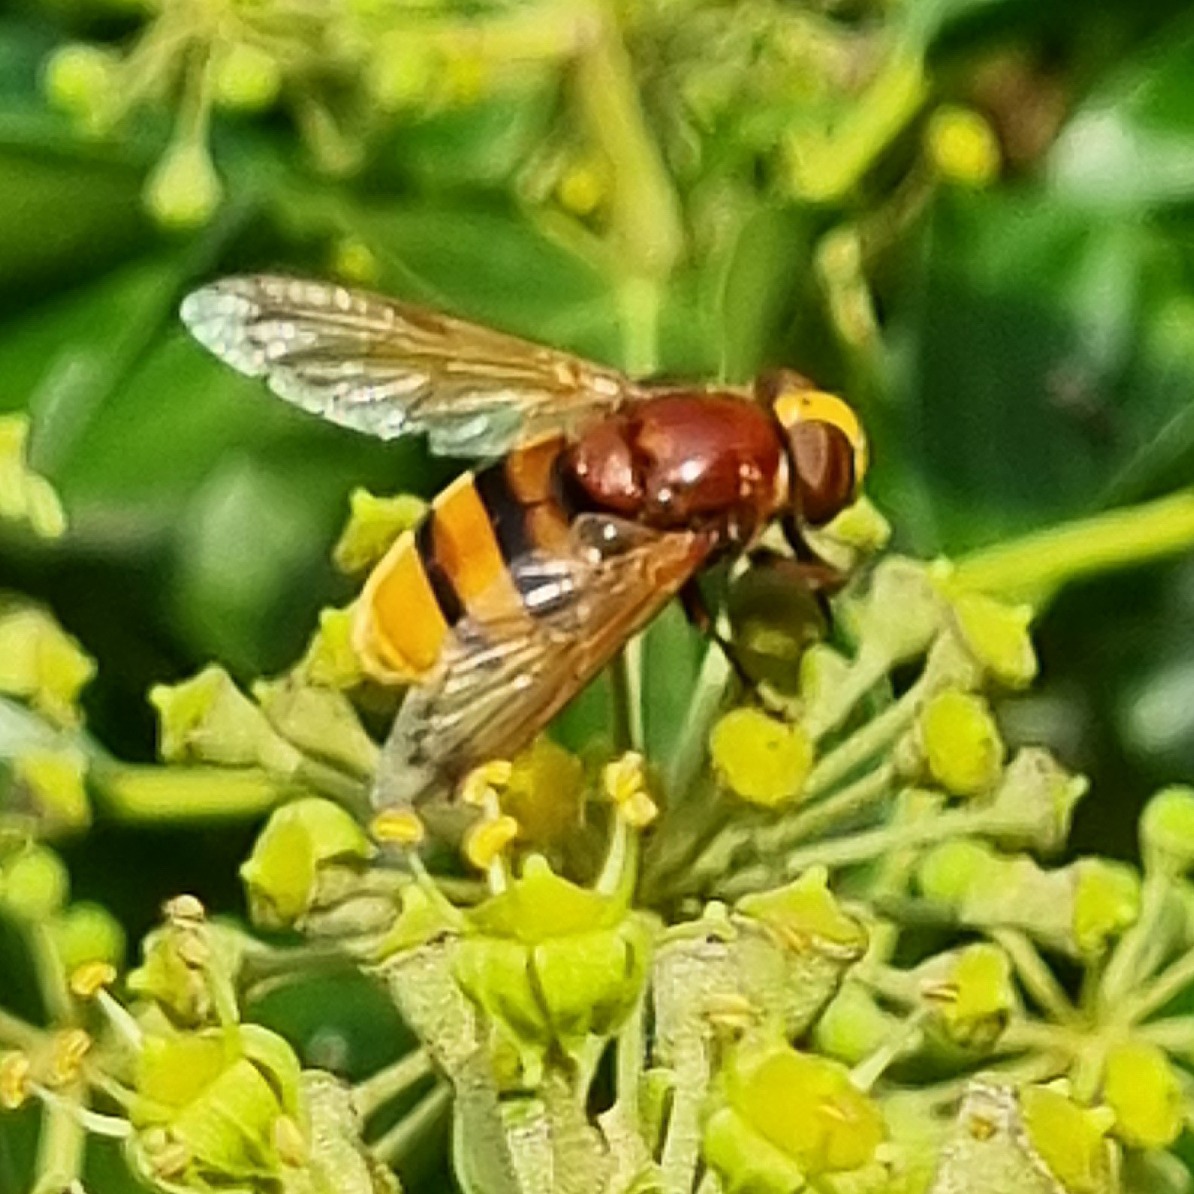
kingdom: Animalia
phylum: Arthropoda
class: Insecta
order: Diptera
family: Syrphidae
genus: Volucella
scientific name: Volucella zonaria
